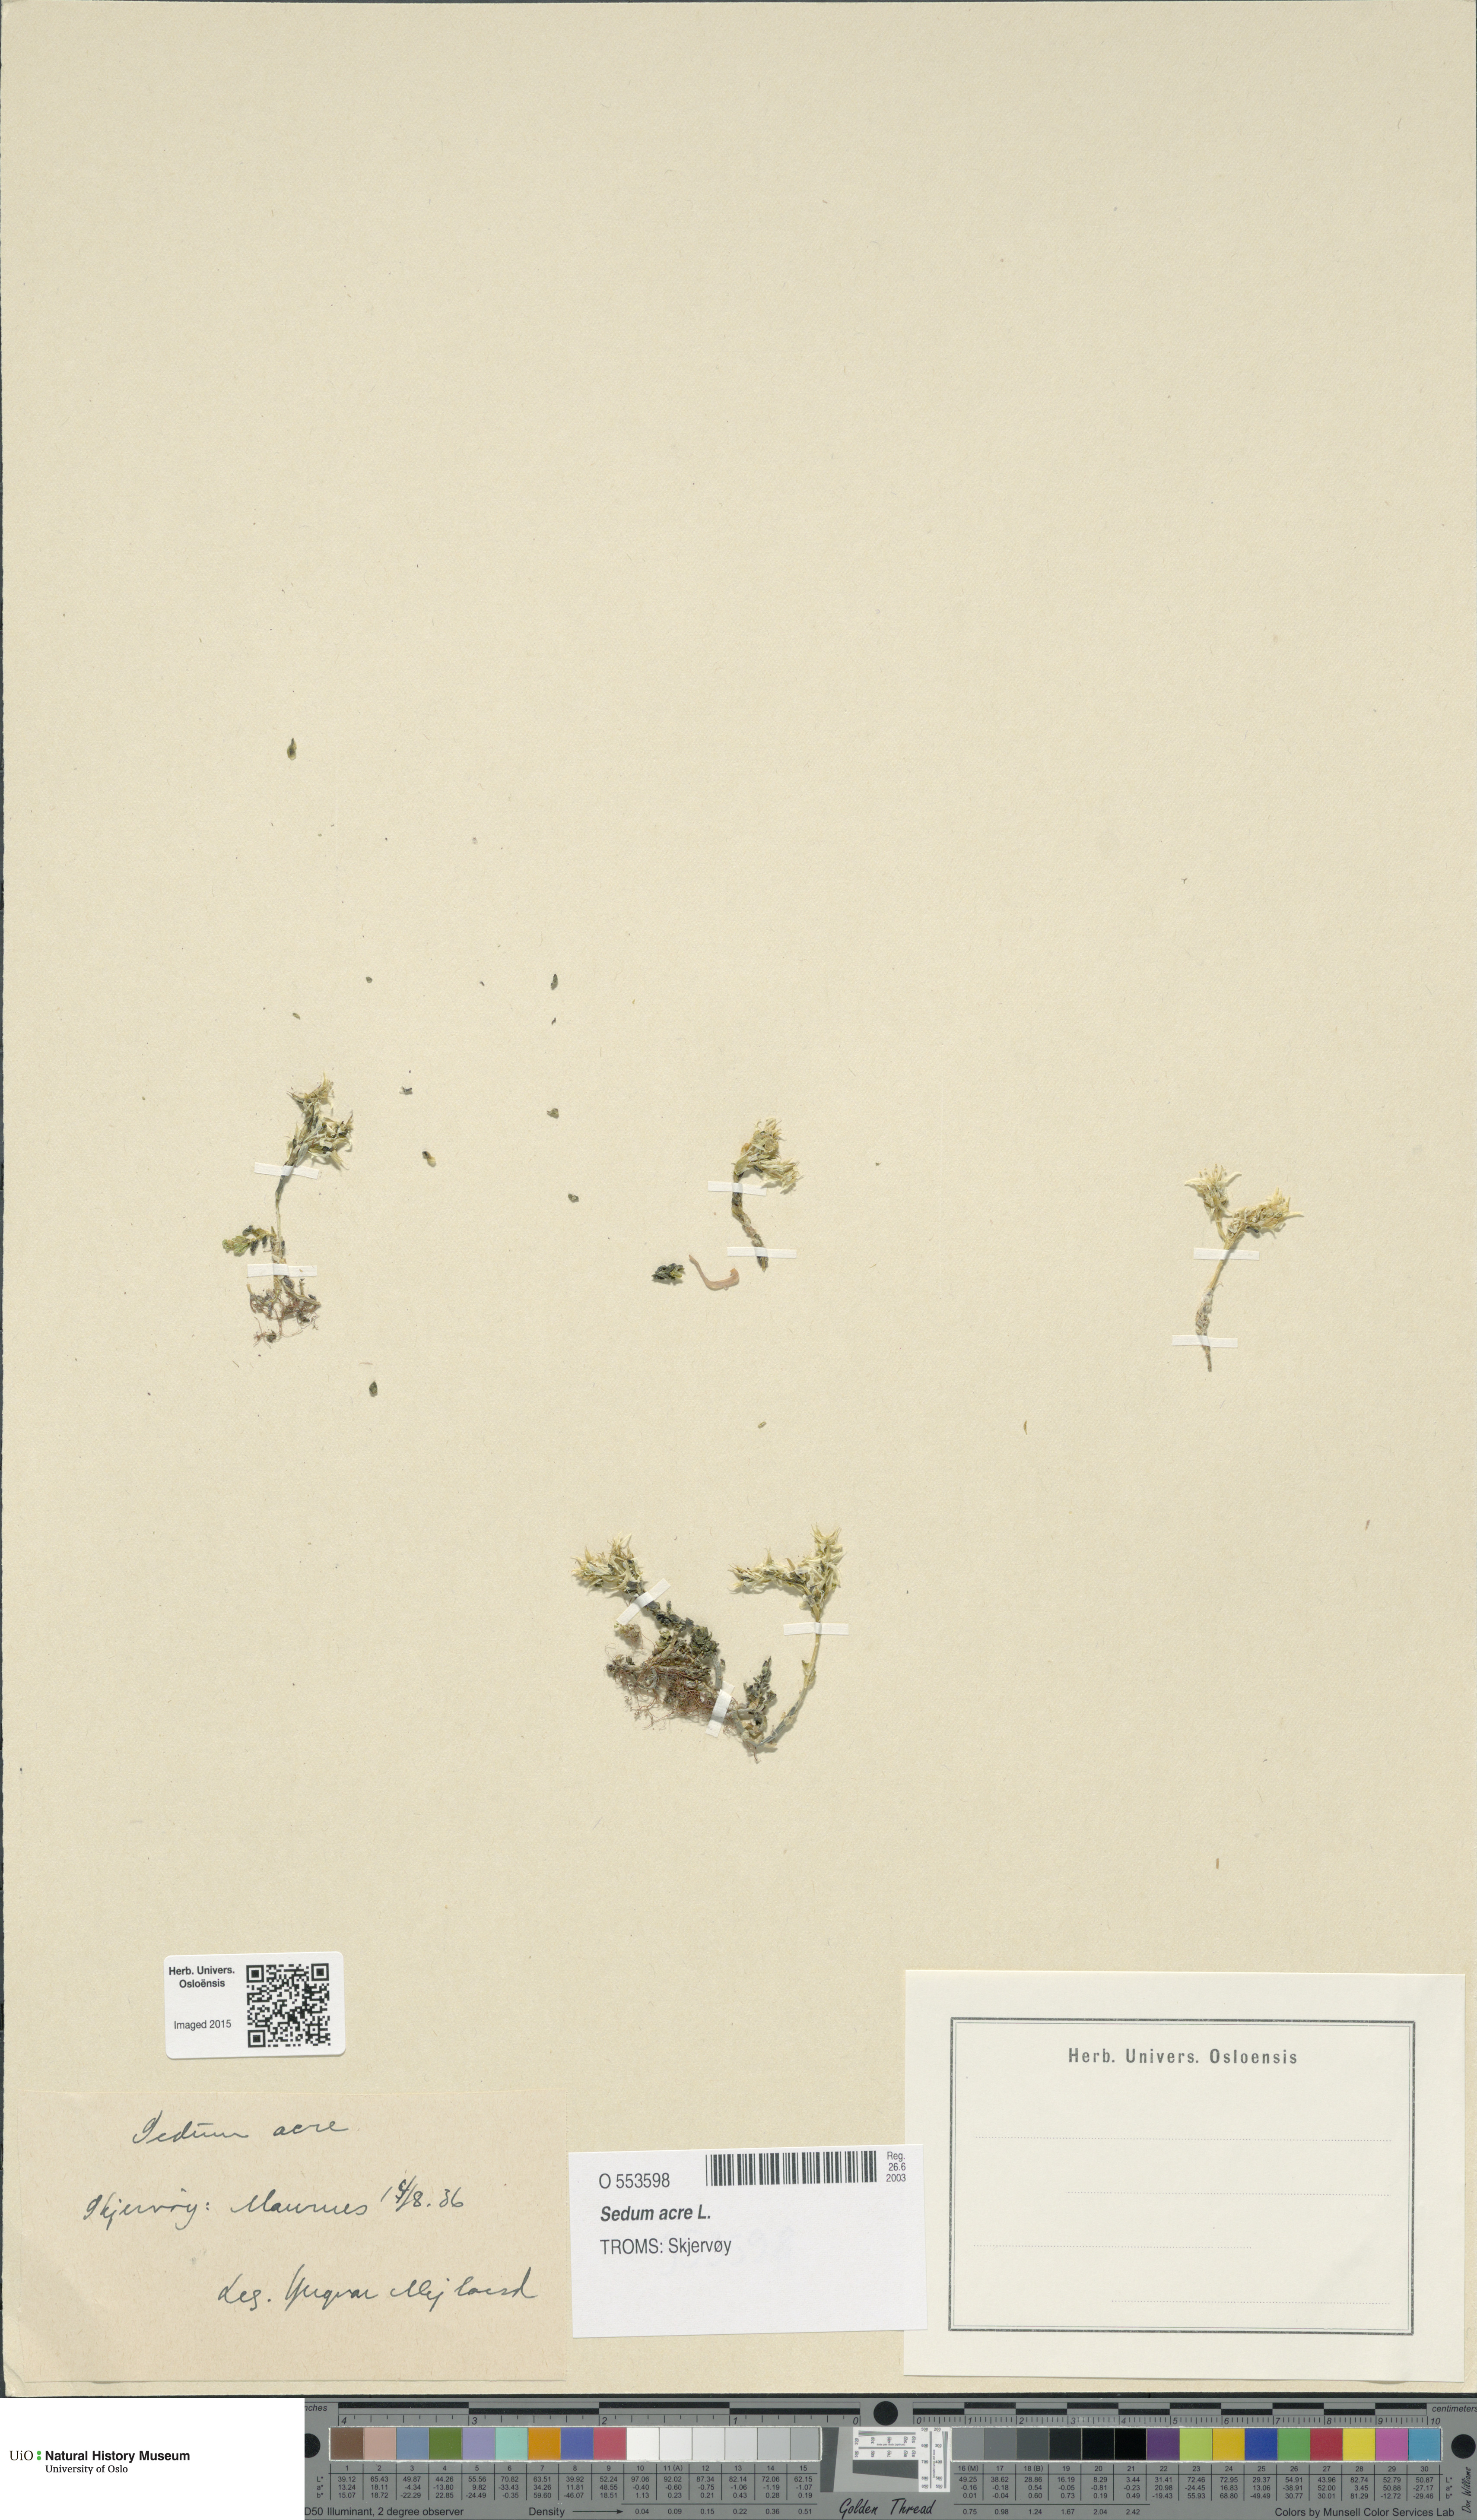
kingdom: Plantae
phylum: Tracheophyta
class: Magnoliopsida
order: Saxifragales
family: Crassulaceae
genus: Sedum
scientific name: Sedum acre
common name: Biting stonecrop
